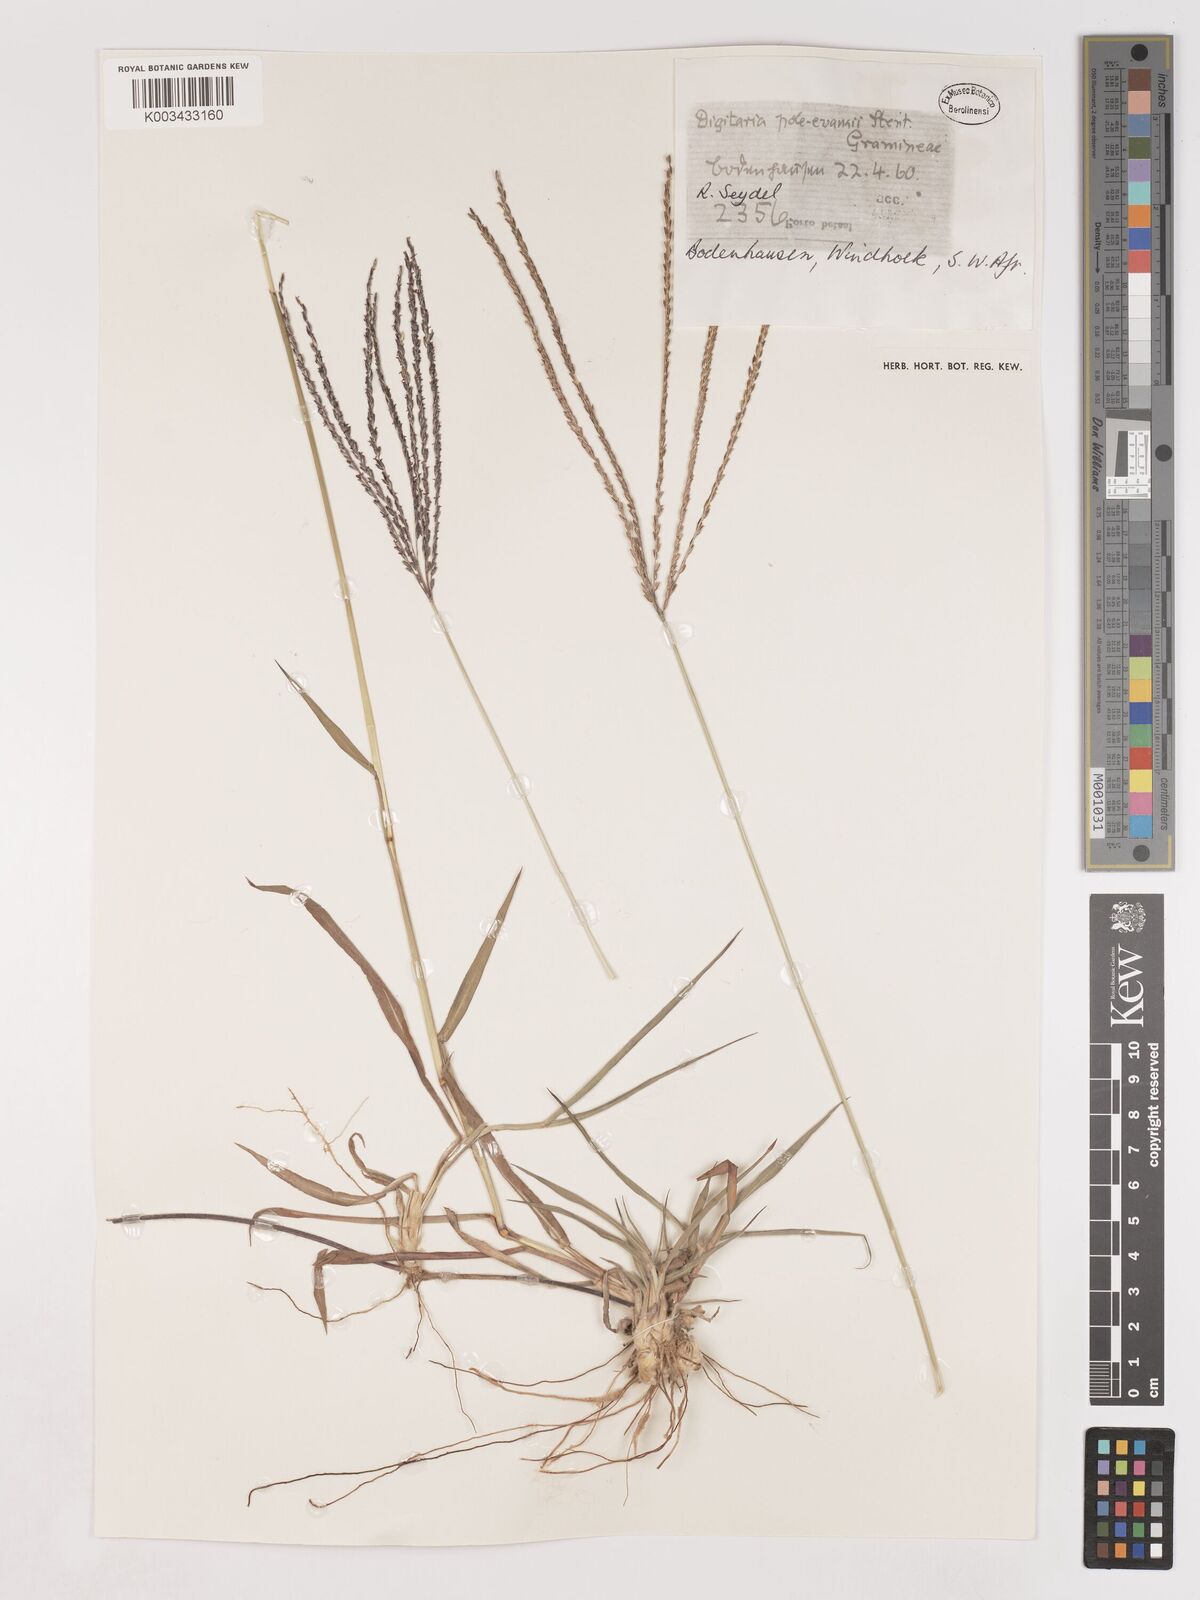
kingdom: Plantae
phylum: Tracheophyta
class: Liliopsida
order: Poales
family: Poaceae
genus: Digitaria
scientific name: Digitaria milanjiana
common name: Madagascar crabgrass
